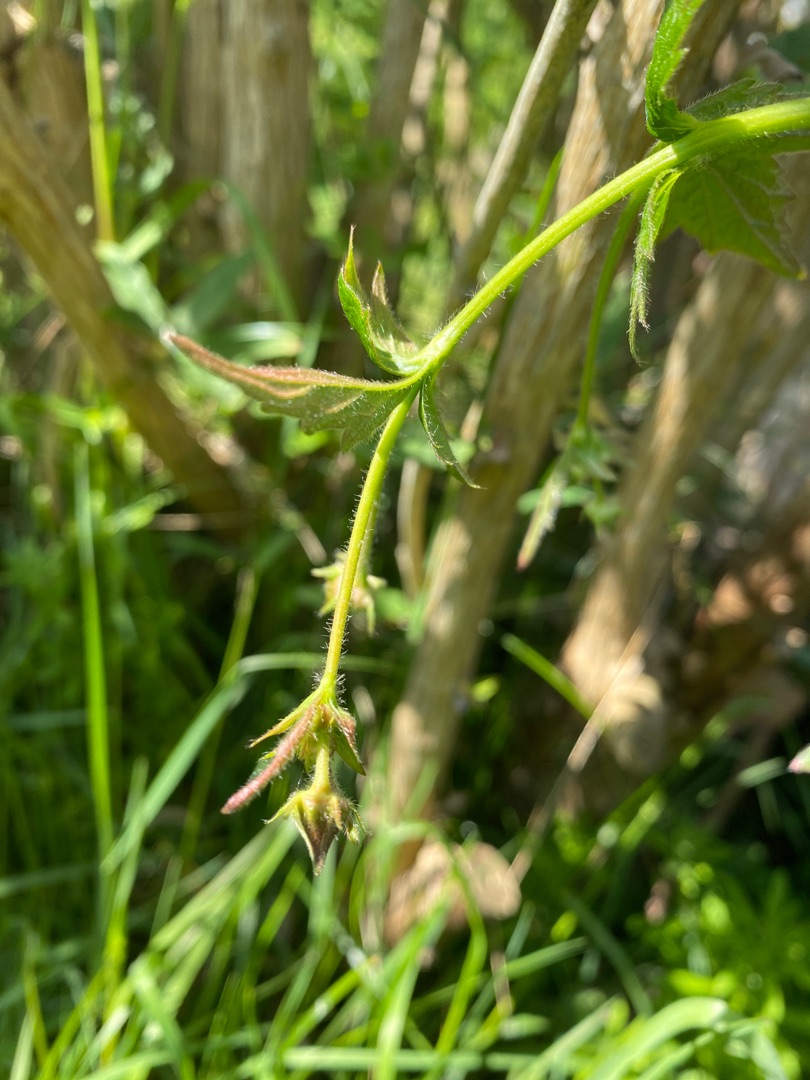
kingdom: Plantae
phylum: Tracheophyta
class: Magnoliopsida
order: Rosales
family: Rosaceae
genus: Geum
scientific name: Geum urbanum
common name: Feber-nellikerod
